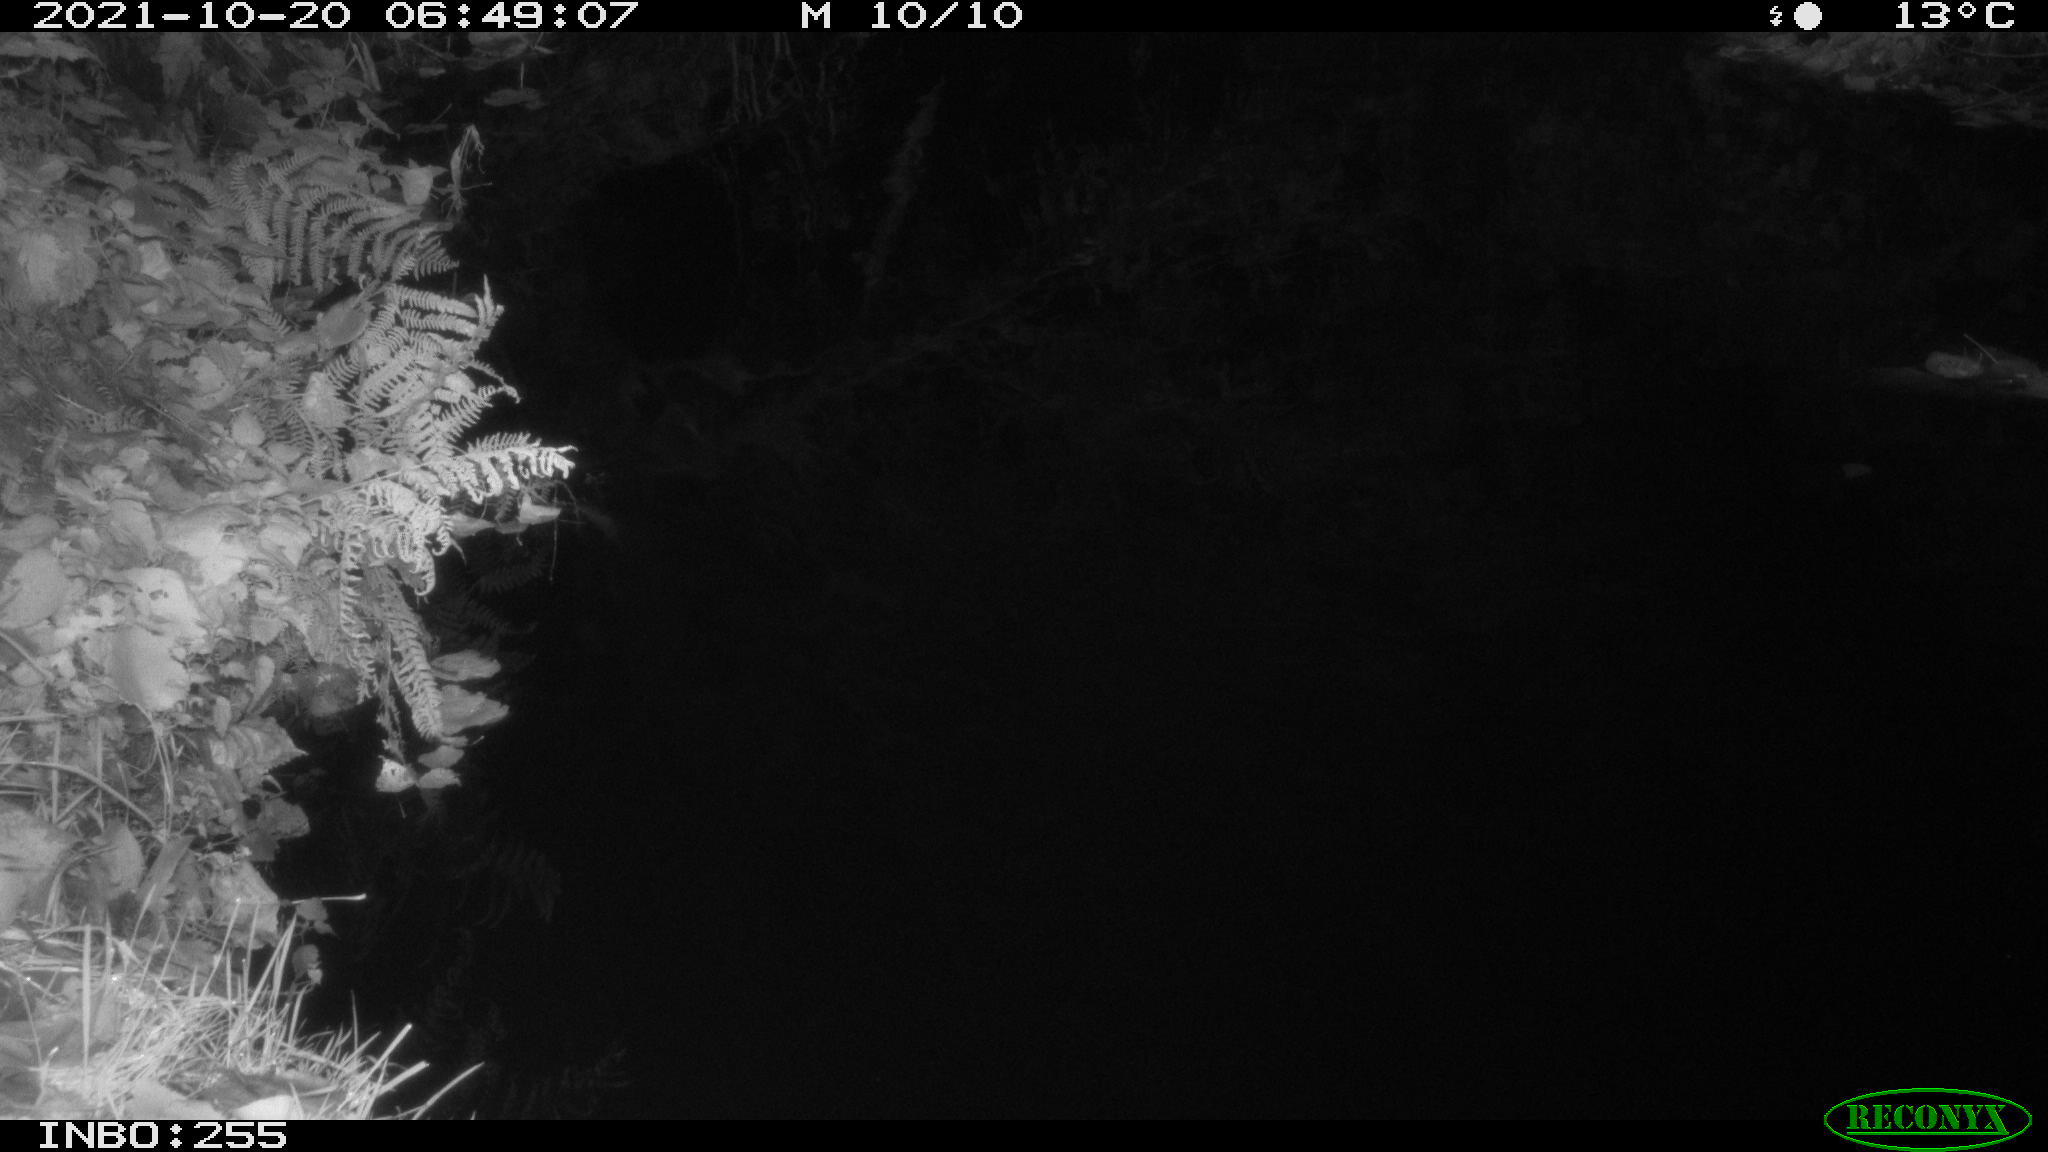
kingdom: Animalia
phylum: Chordata
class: Aves
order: Anseriformes
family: Anatidae
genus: Anas
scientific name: Anas platyrhynchos
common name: Mallard
